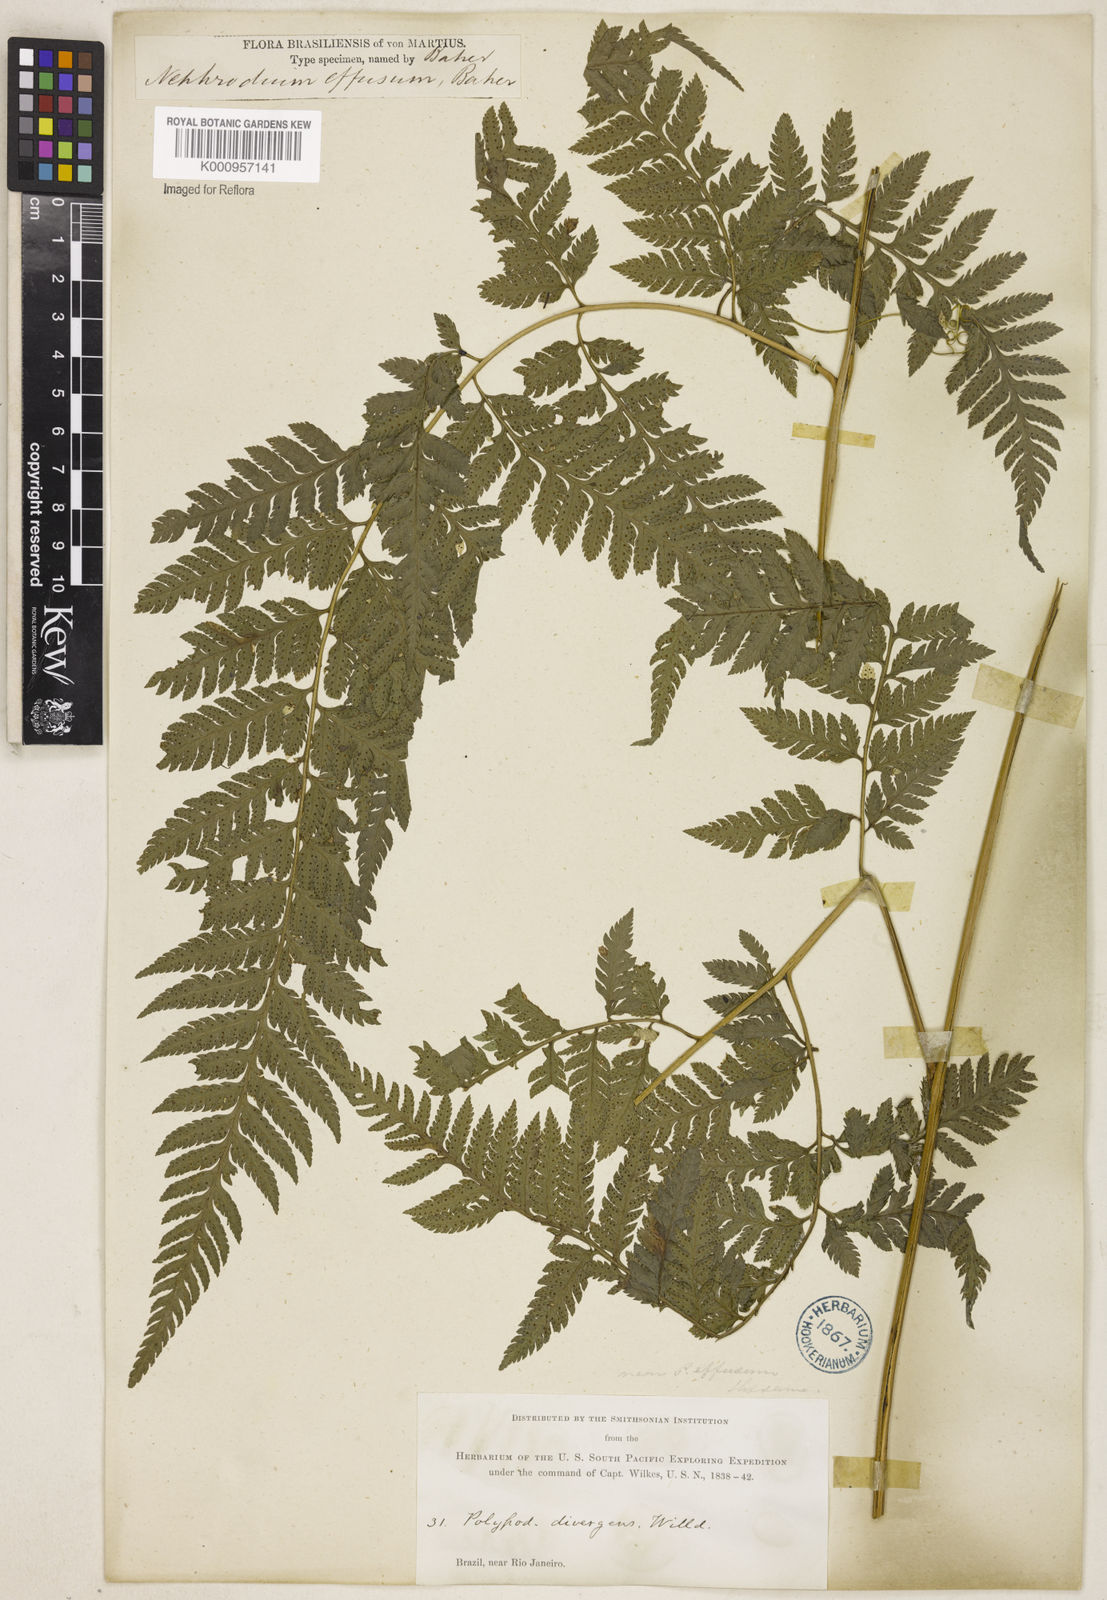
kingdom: Plantae
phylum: Tracheophyta
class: Polypodiopsida
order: Polypodiales
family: Dryopteridaceae
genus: Parapolystichum
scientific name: Parapolystichum effusum
